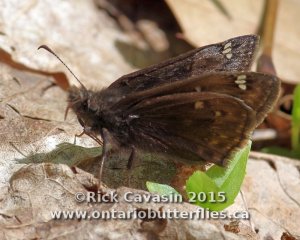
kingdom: Animalia
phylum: Arthropoda
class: Insecta
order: Lepidoptera
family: Hesperiidae
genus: Gesta
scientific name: Gesta
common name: Juvenal's Duskywing
